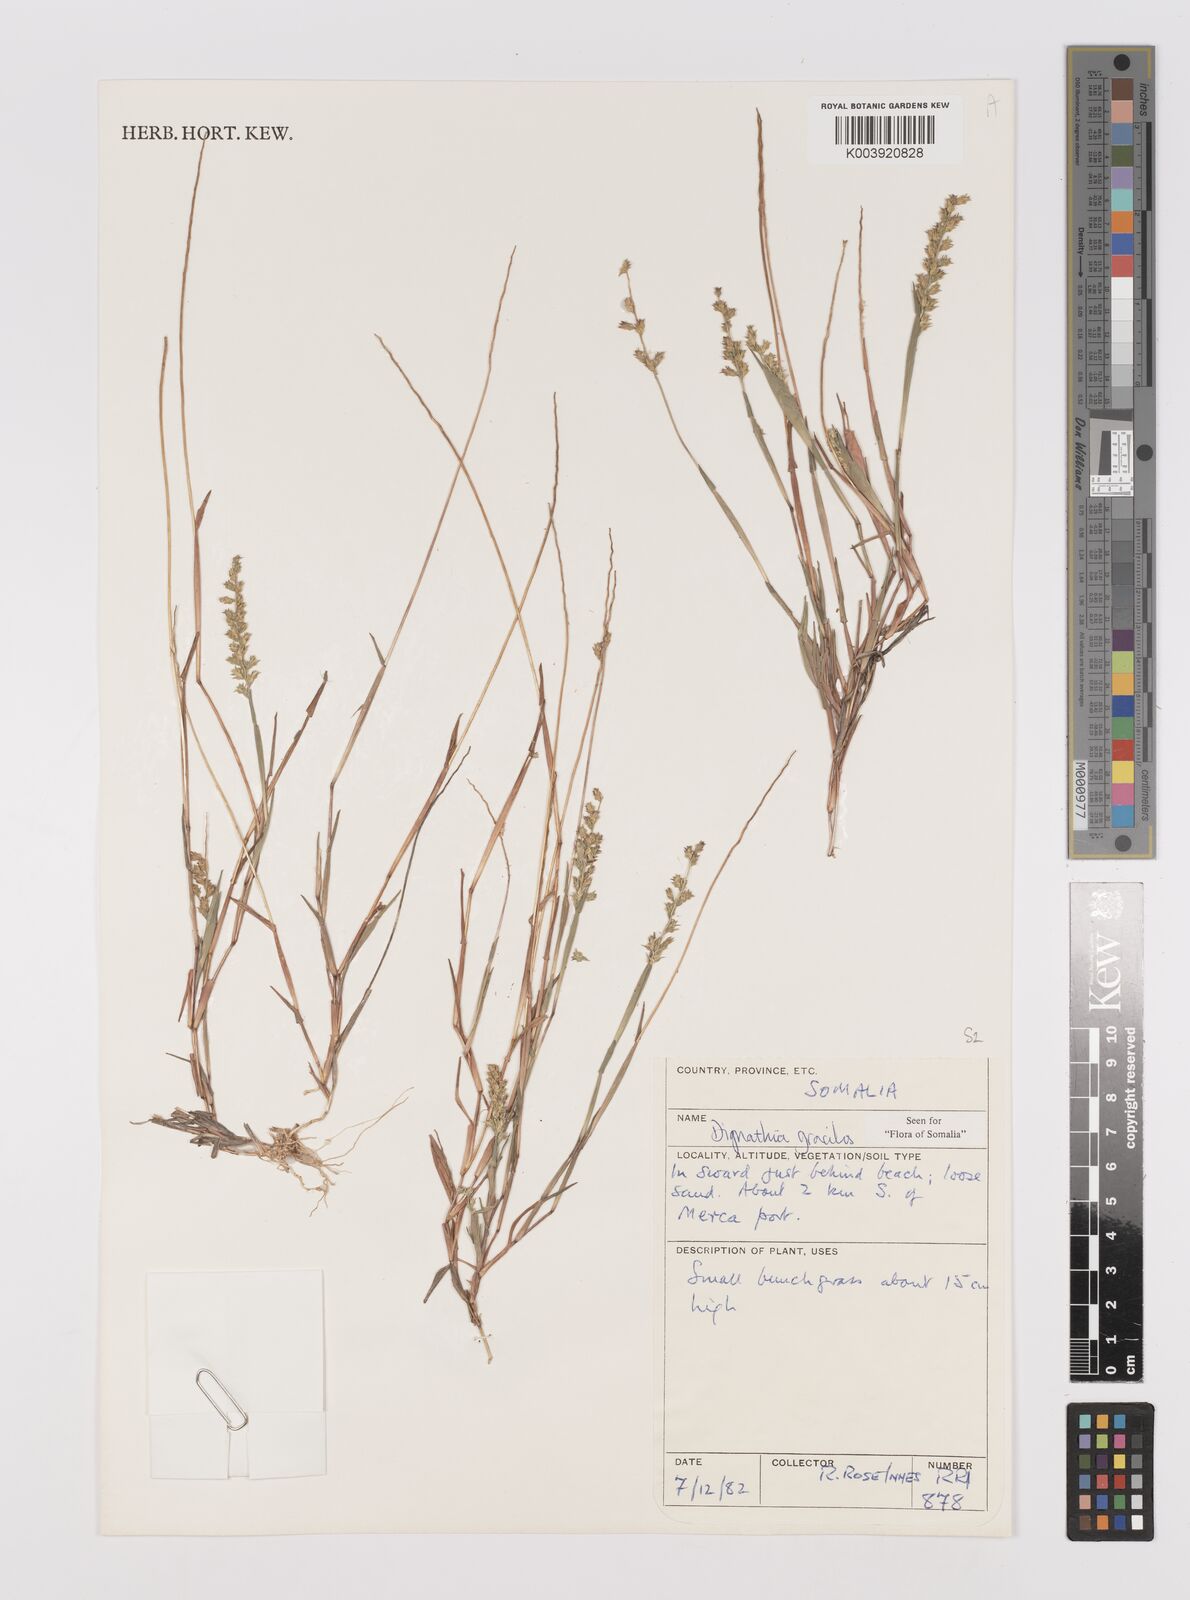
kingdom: Plantae
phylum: Tracheophyta
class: Liliopsida
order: Poales
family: Poaceae
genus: Dignathia
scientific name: Dignathia gracilis
